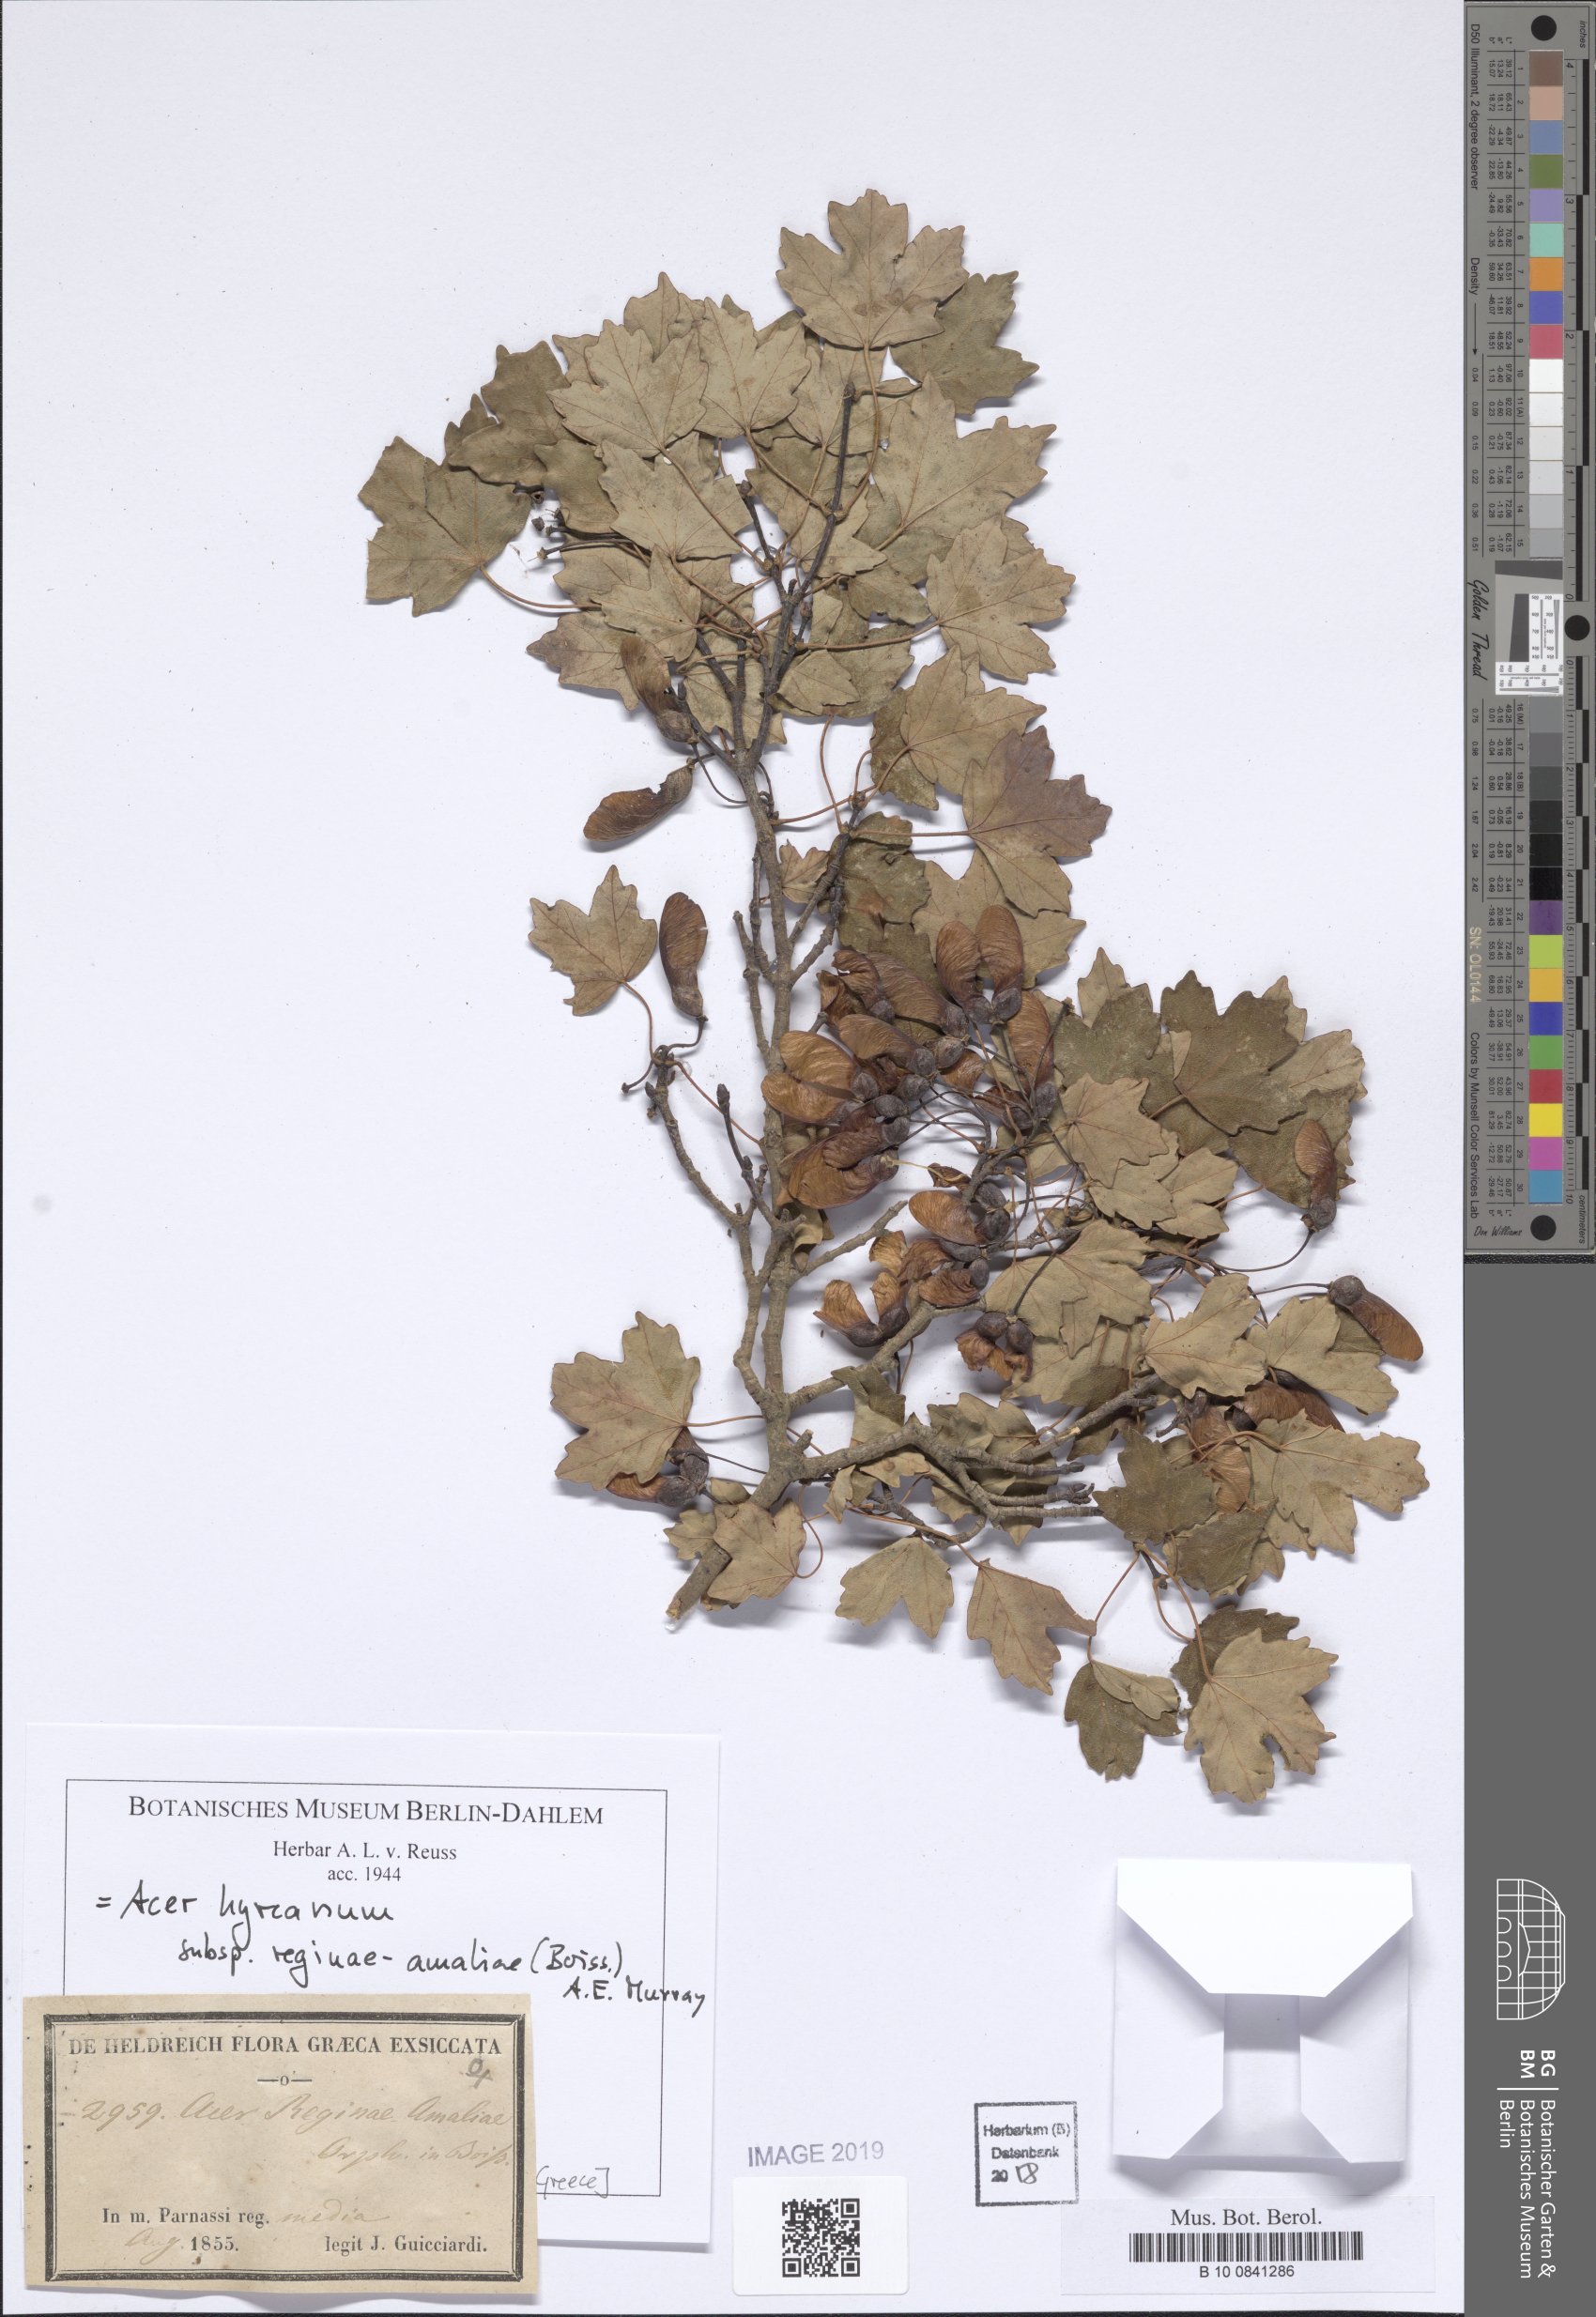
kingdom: Plantae
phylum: Tracheophyta
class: Magnoliopsida
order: Sapindales
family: Sapindaceae
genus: Acer
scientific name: Acer hyrcanum
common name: Balkan maple
